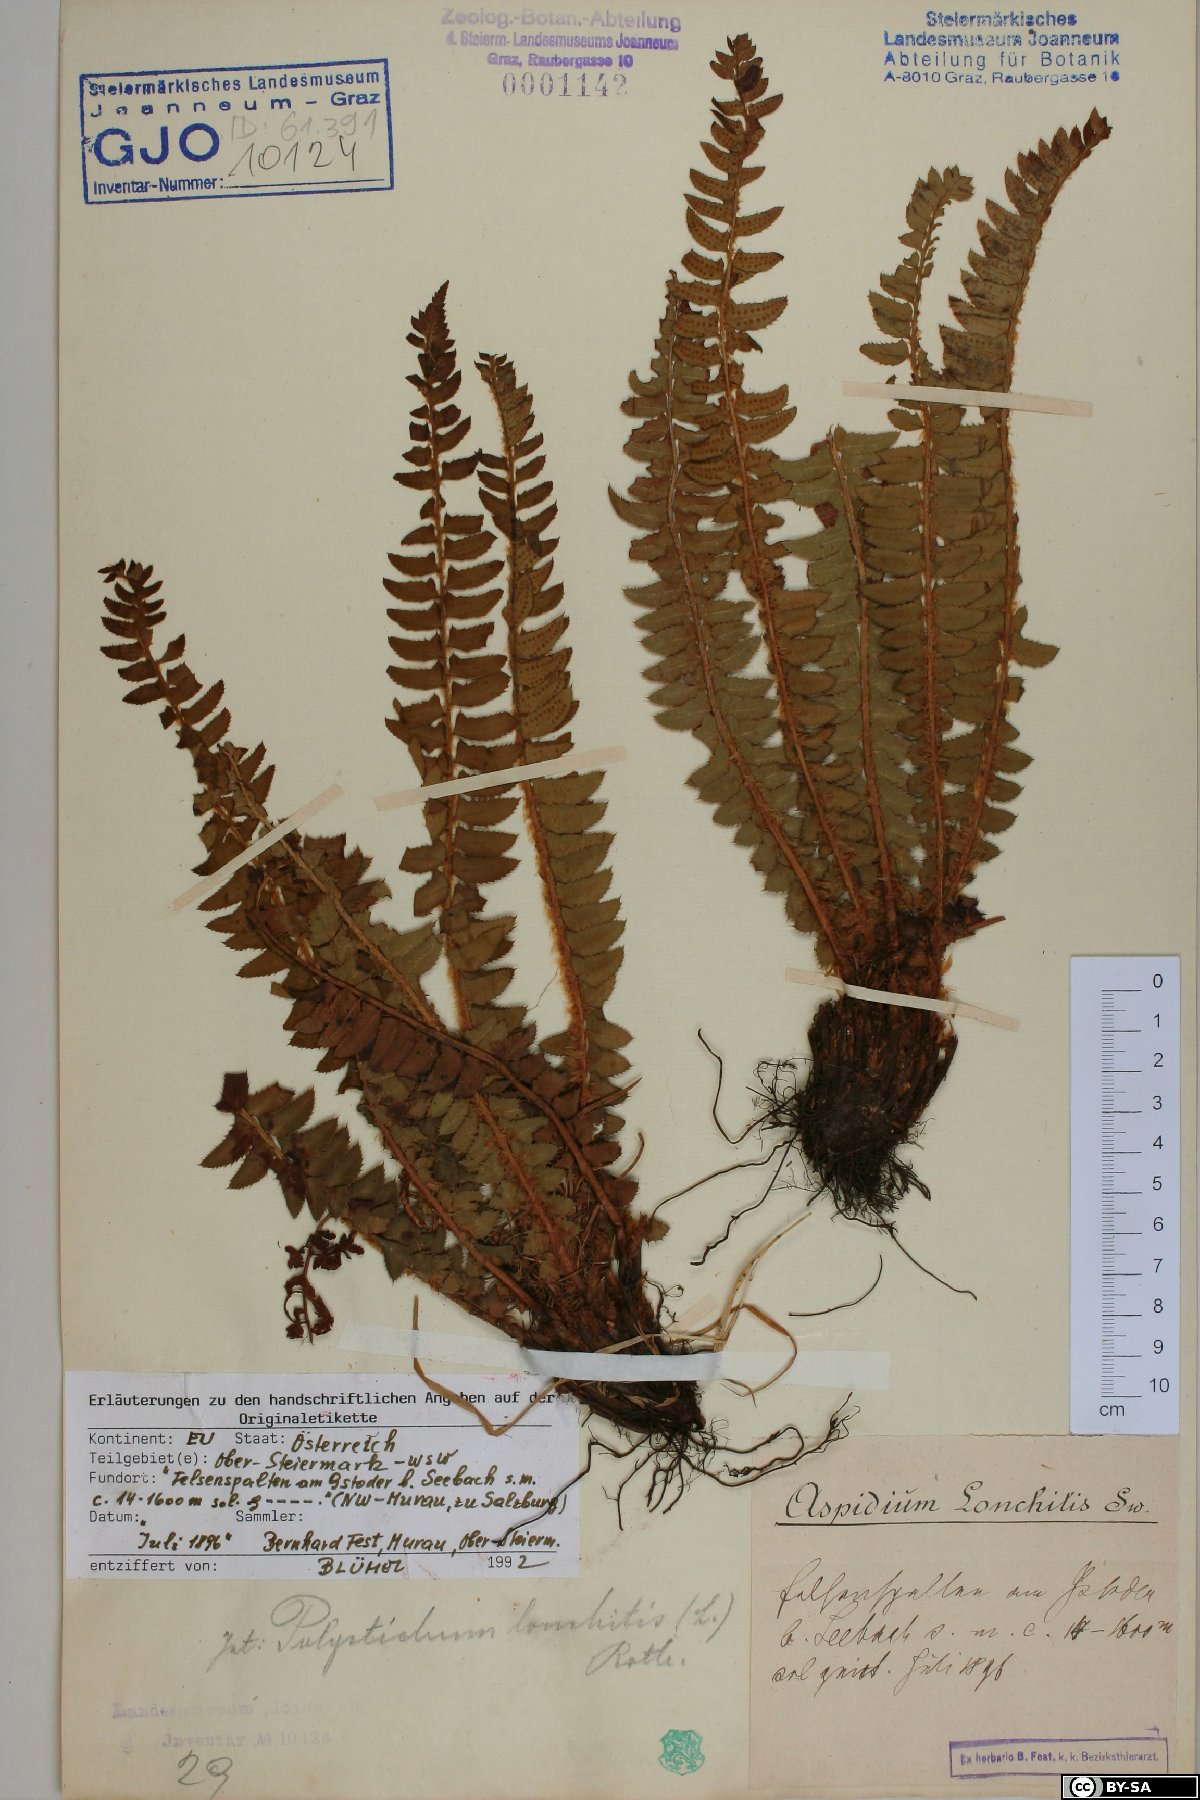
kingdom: Plantae
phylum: Tracheophyta
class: Polypodiopsida
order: Polypodiales
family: Dryopteridaceae
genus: Polystichum
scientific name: Polystichum lonchitis
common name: Holly fern
